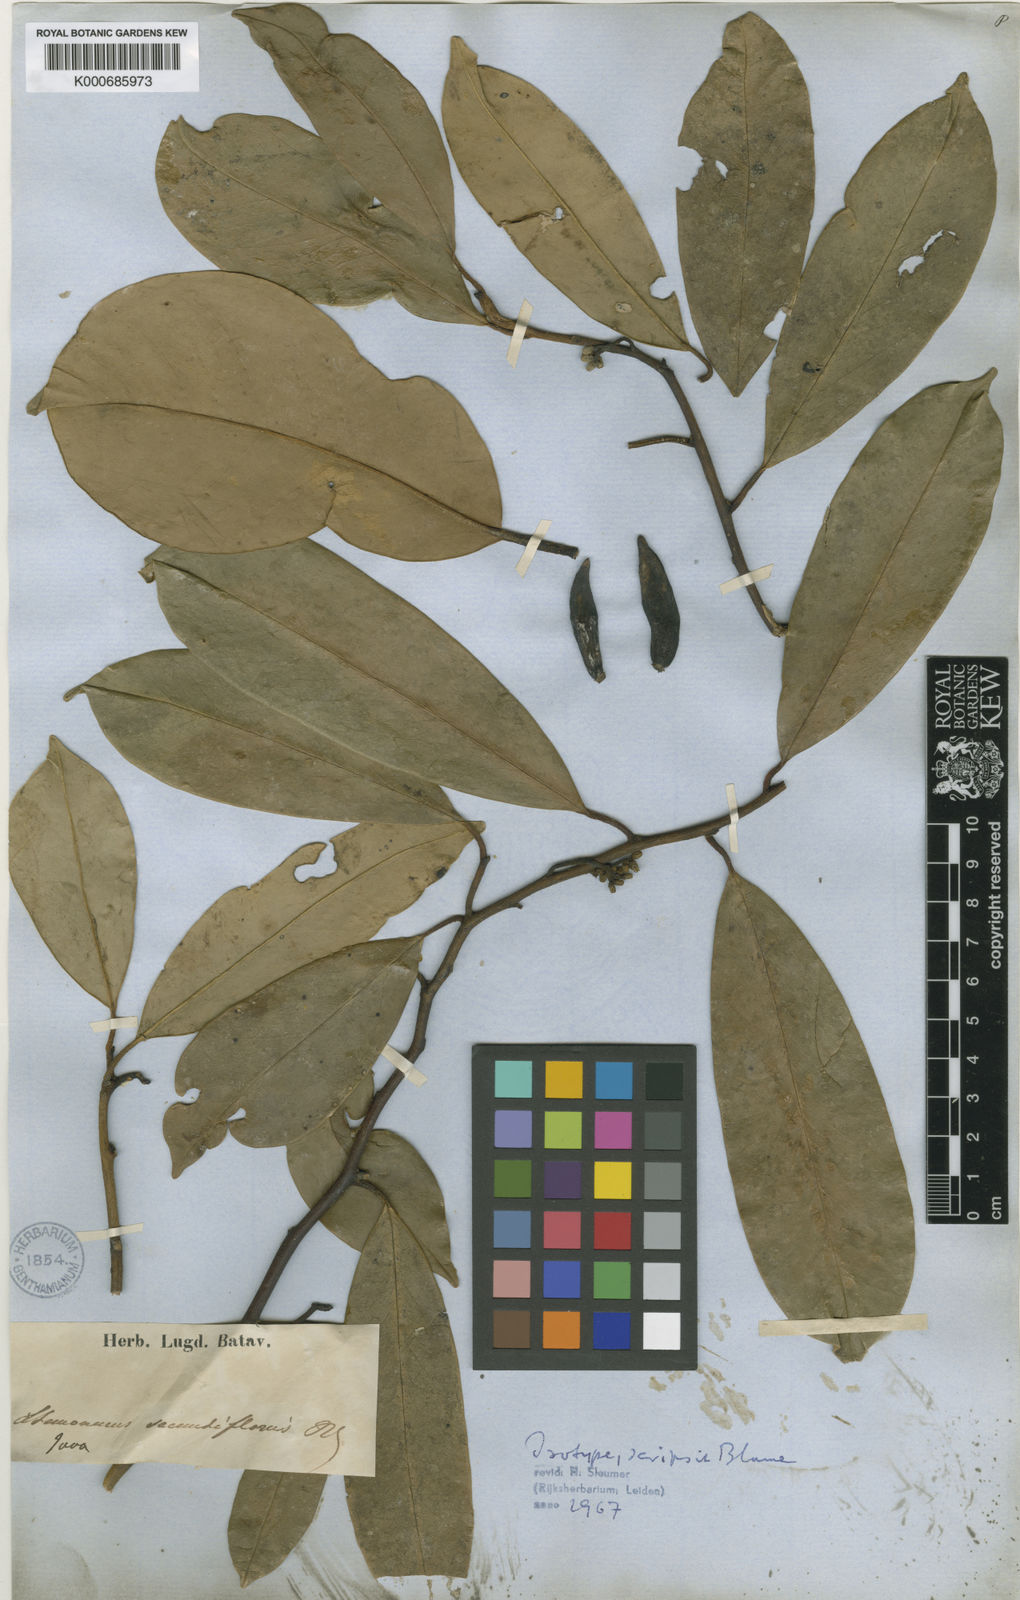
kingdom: Plantae
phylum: Tracheophyta
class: Magnoliopsida
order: Cardiopteridales
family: Stemonuraceae
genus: Stemonurus
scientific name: Stemonurus secundiflorus
